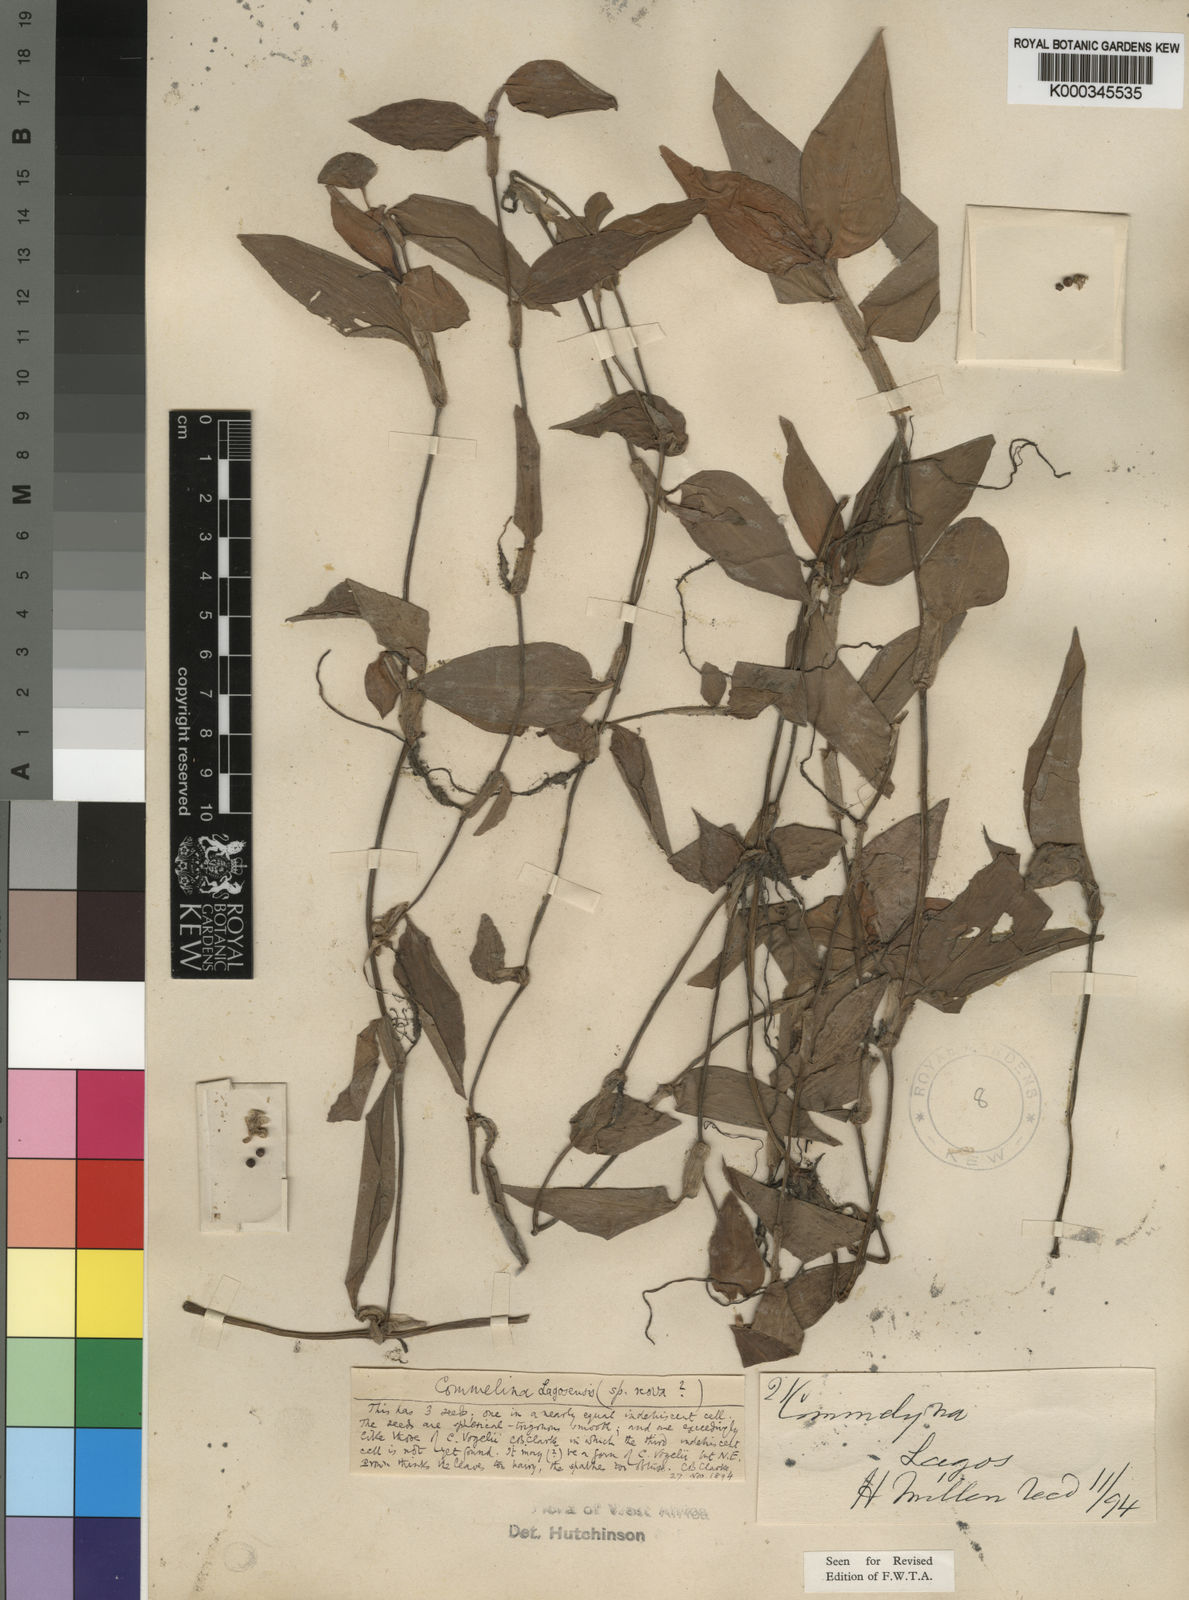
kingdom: Plantae
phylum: Tracheophyta
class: Liliopsida
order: Commelinales
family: Commelinaceae
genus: Commelina
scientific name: Commelina bracteosa
